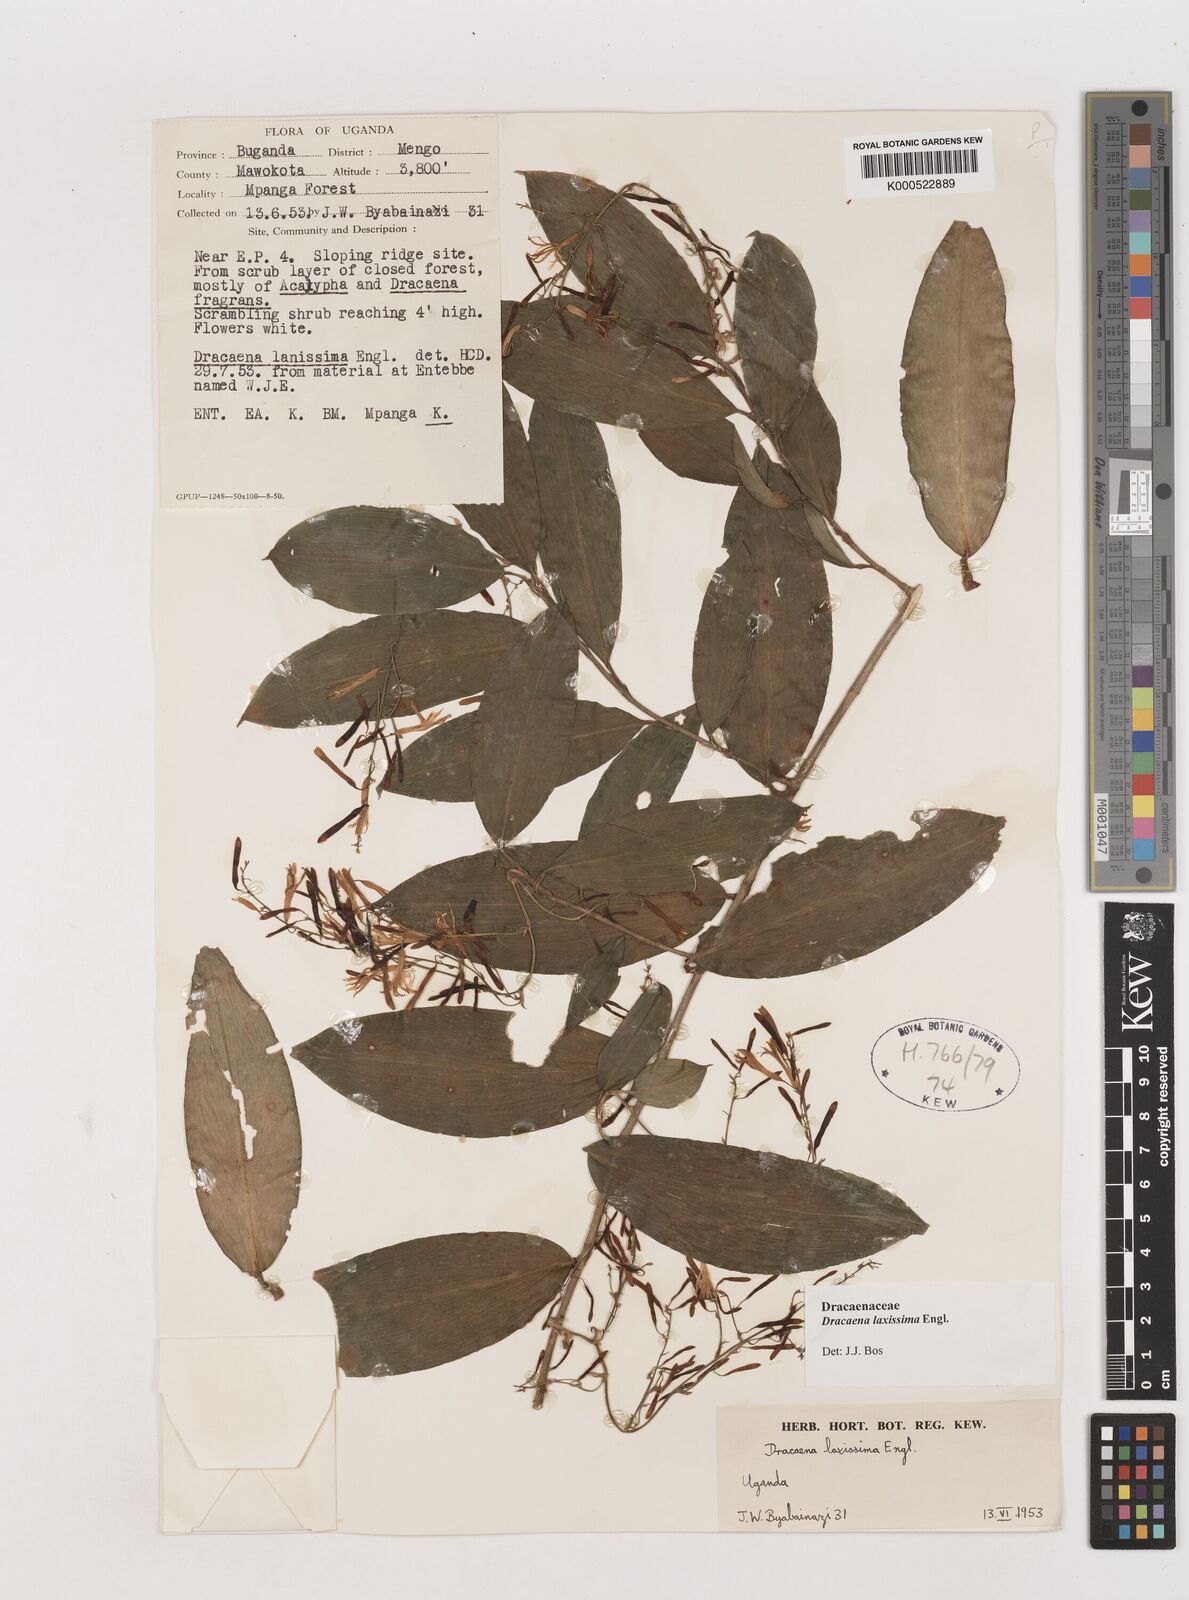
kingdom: Plantae
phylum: Tracheophyta
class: Liliopsida
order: Asparagales
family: Asparagaceae
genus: Dracaena
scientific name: Dracaena laxissima
